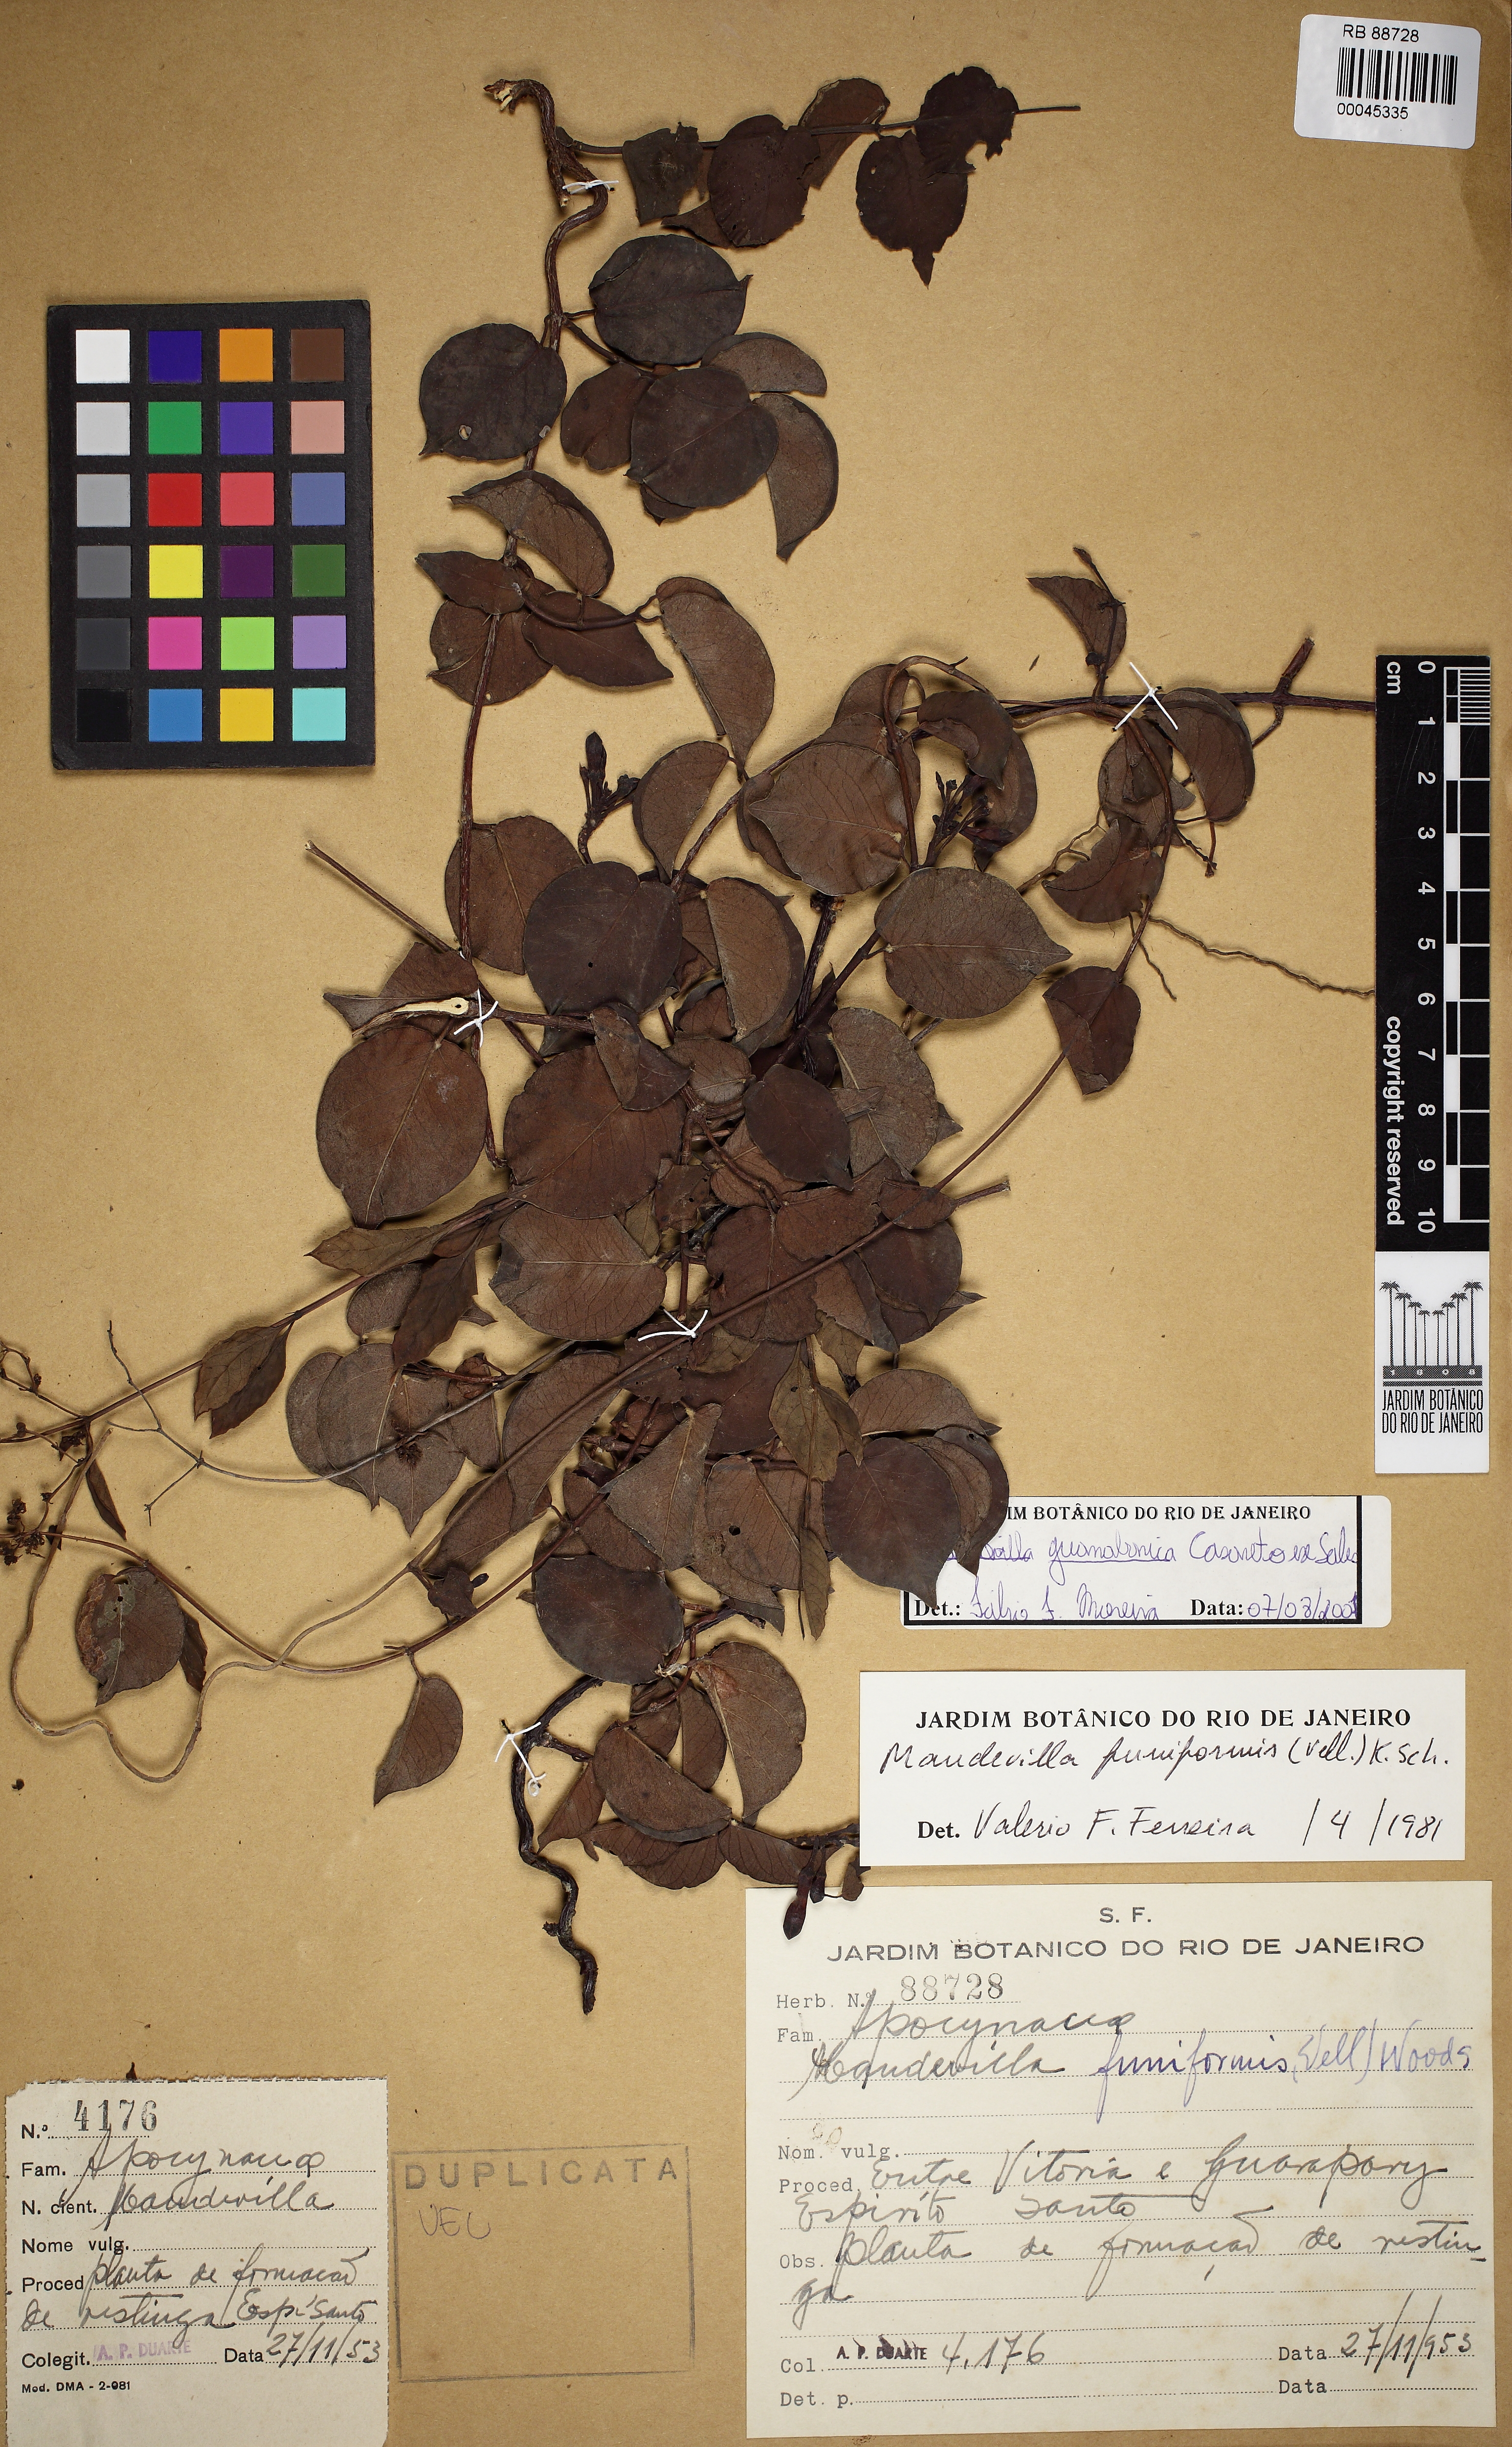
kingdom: Plantae
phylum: Tracheophyta
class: Magnoliopsida
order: Gentianales
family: Apocynaceae
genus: Mandevilla
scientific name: Mandevilla guanabarica
